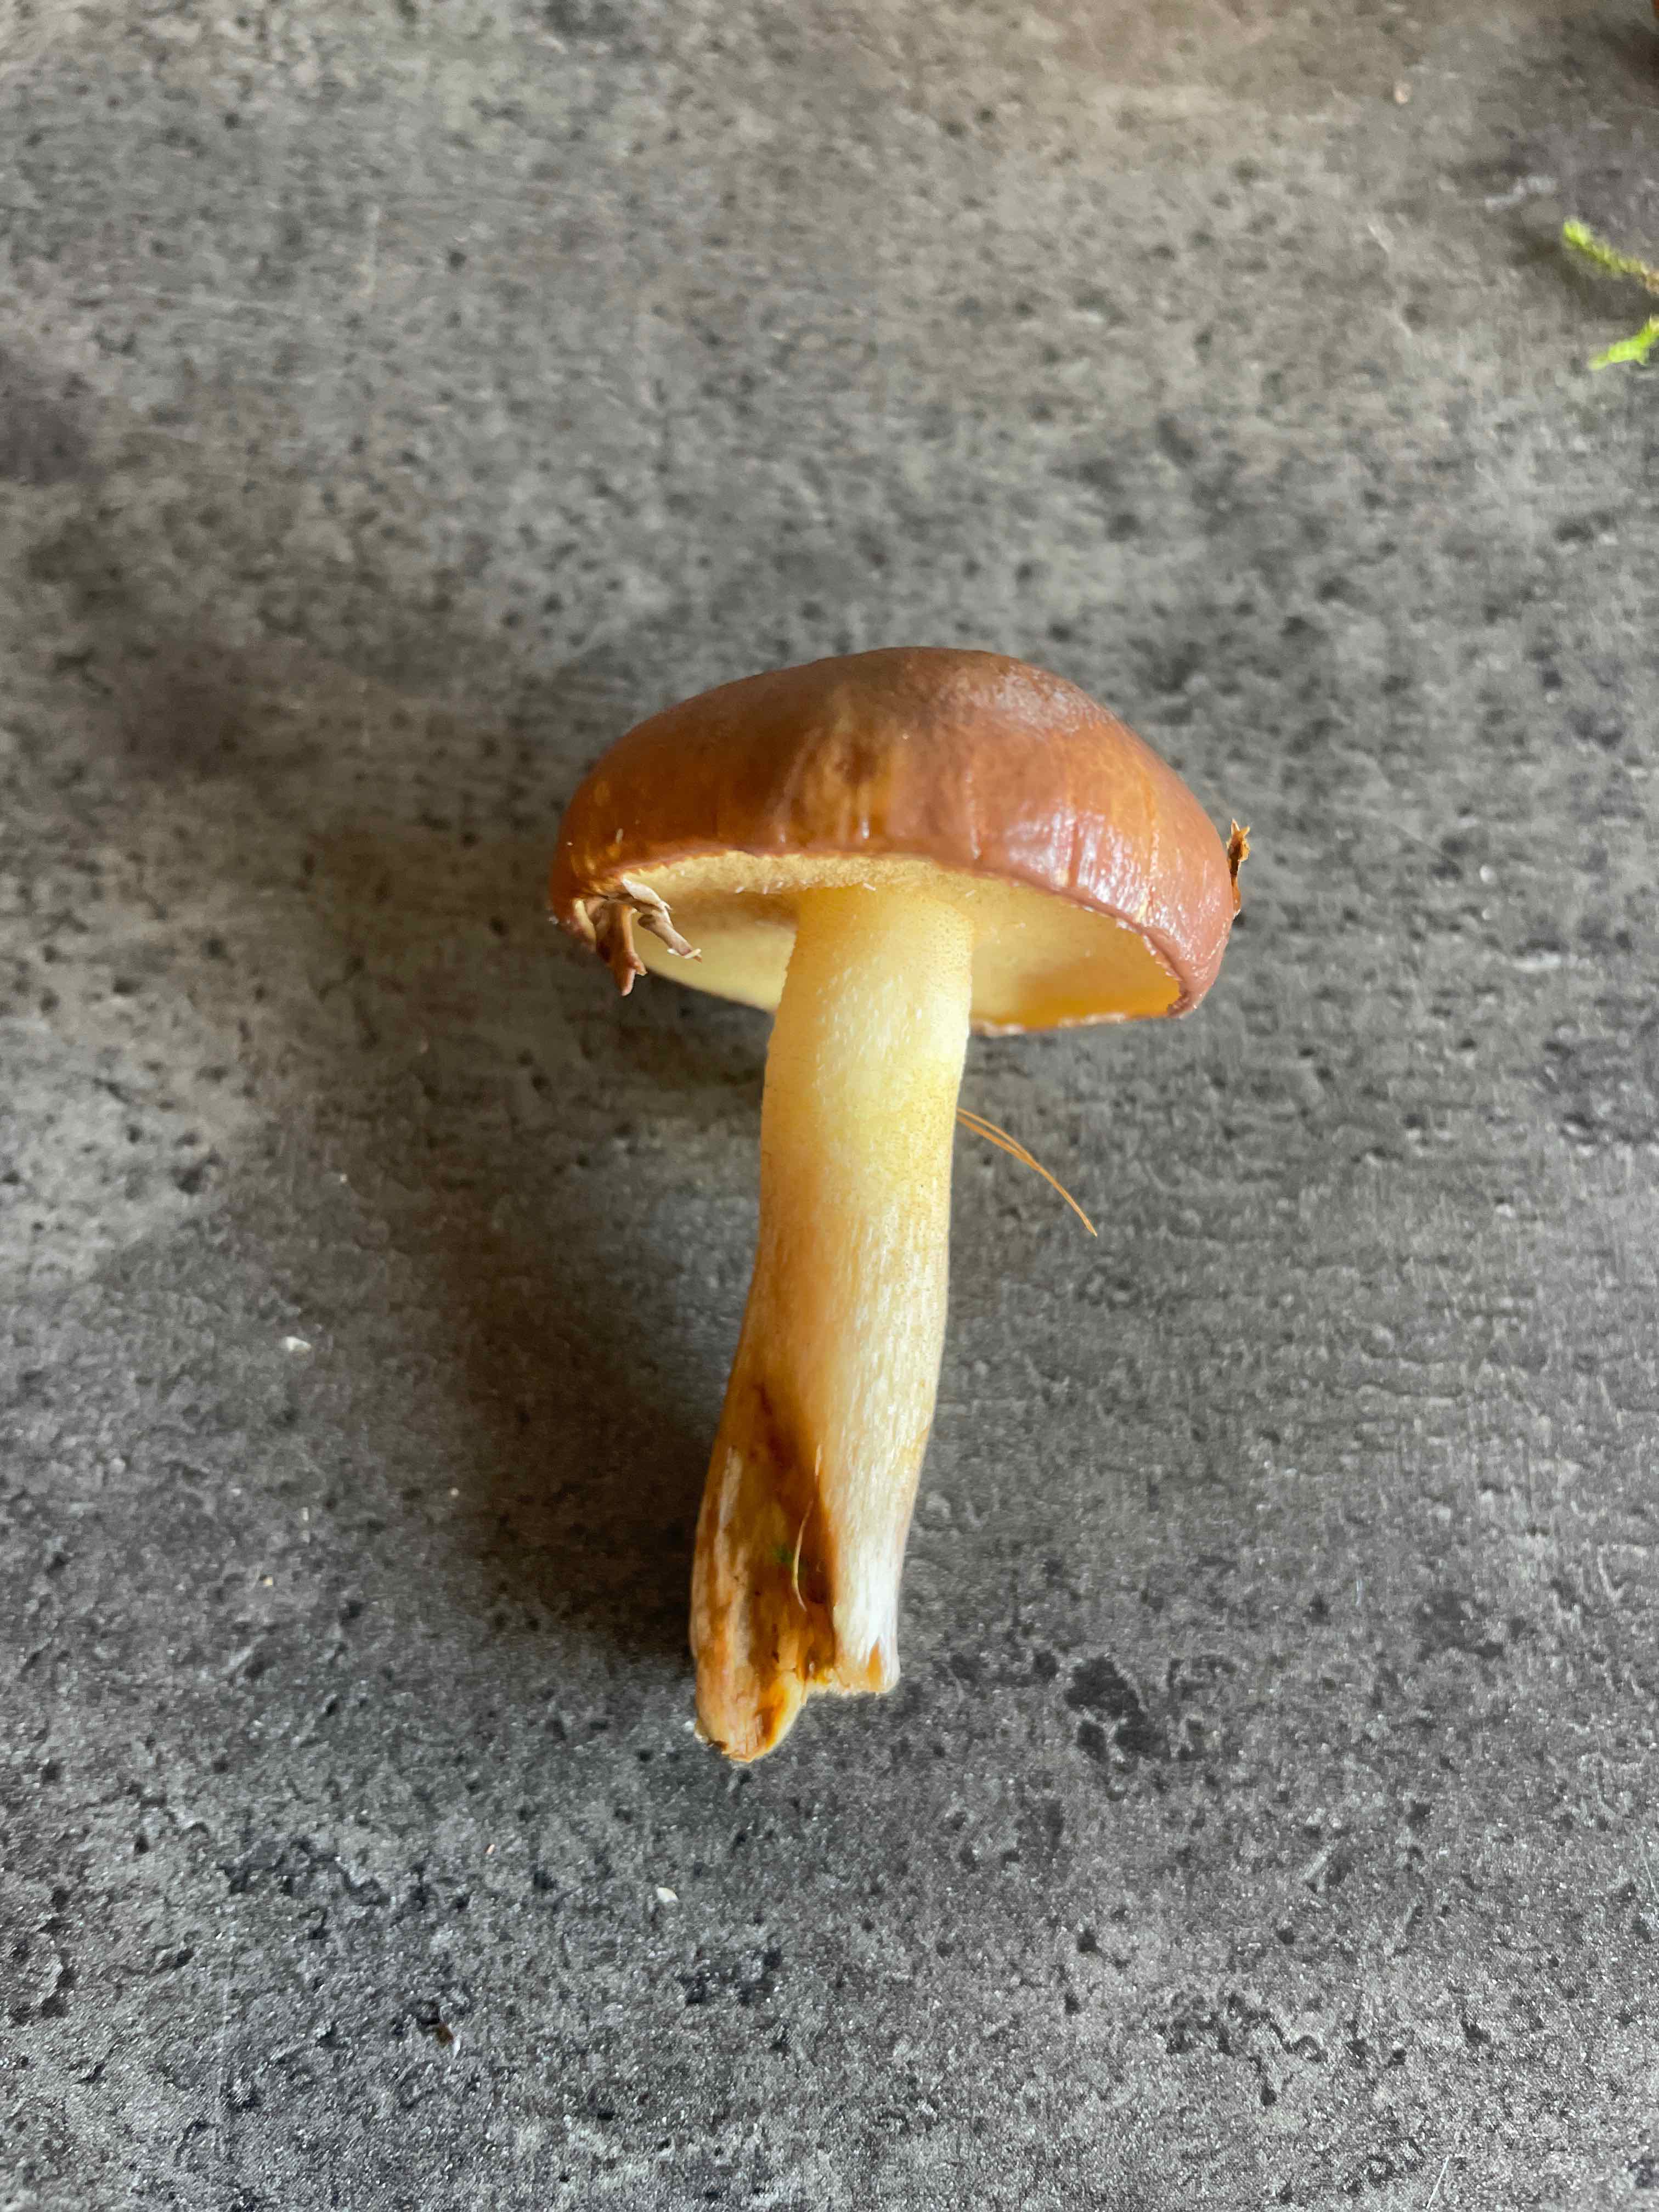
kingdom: Fungi
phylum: Basidiomycota
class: Agaricomycetes
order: Boletales
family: Suillaceae
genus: Suillus
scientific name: Suillus granulatus
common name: kornet slimrørhat
